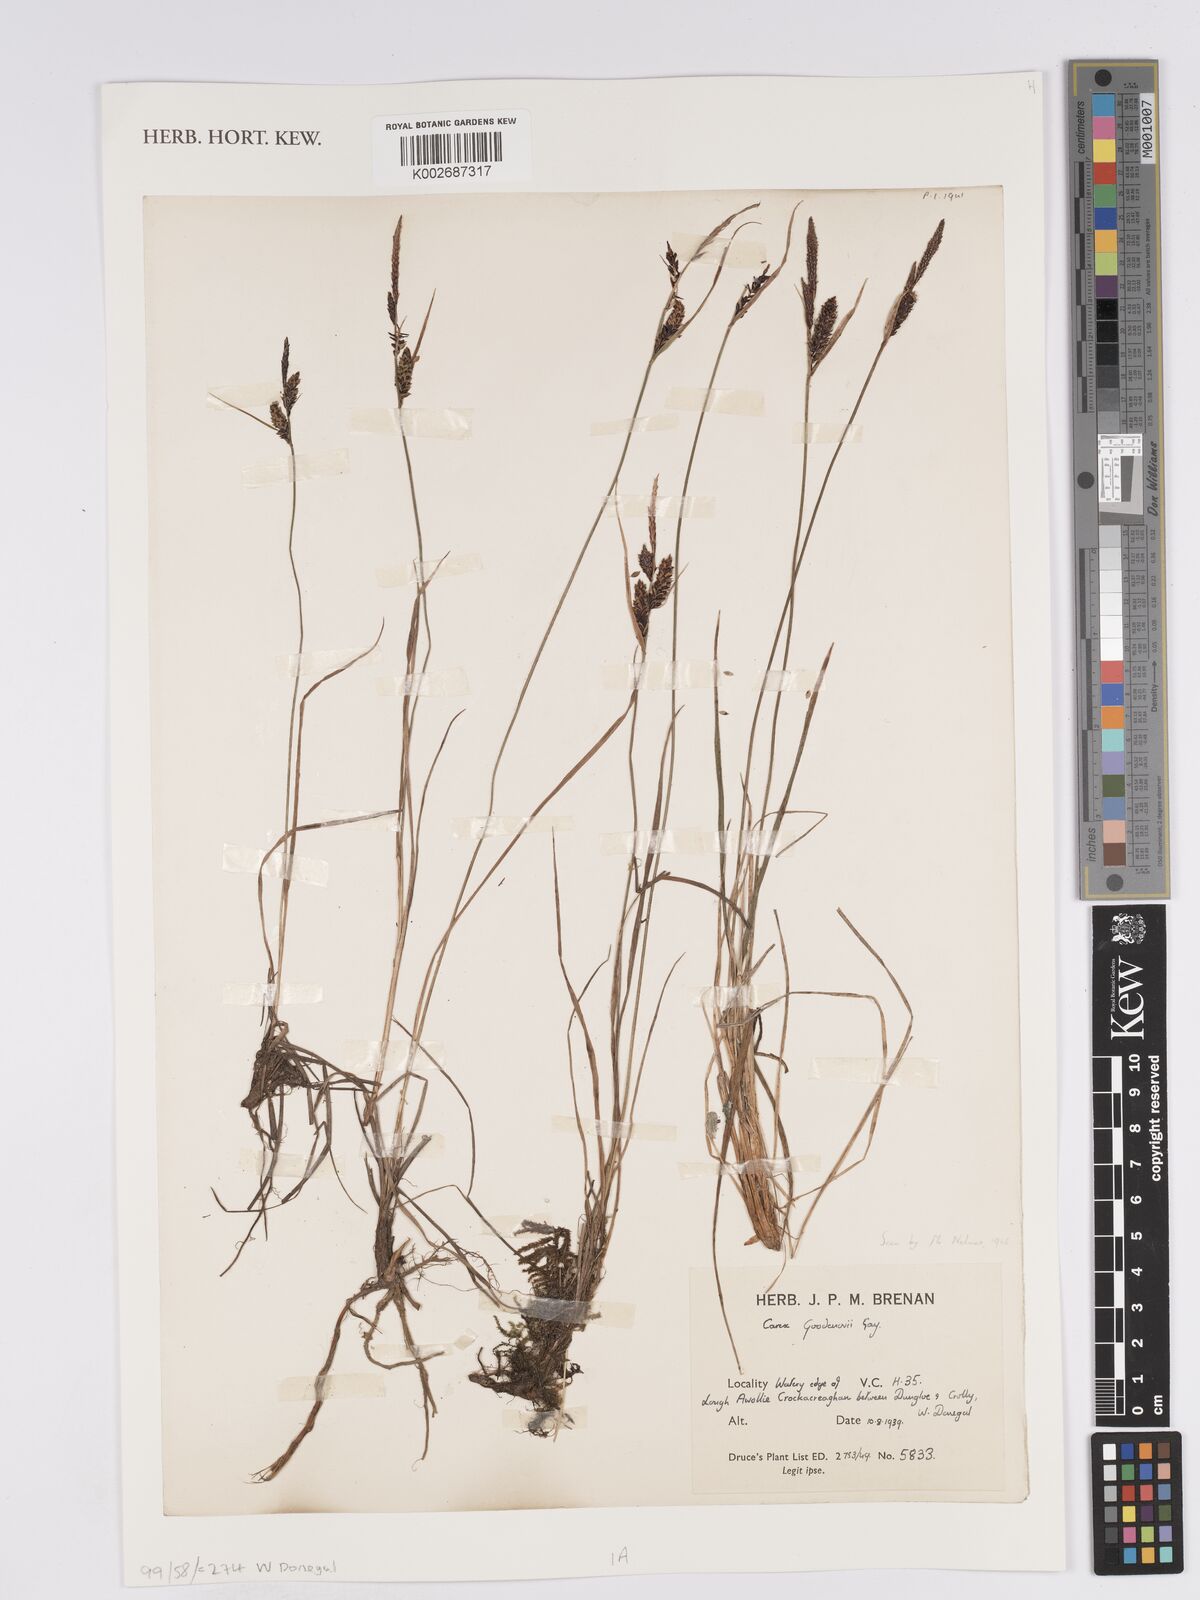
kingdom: Plantae
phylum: Tracheophyta
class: Liliopsida
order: Poales
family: Cyperaceae
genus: Carex
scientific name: Carex nigra
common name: Common sedge
